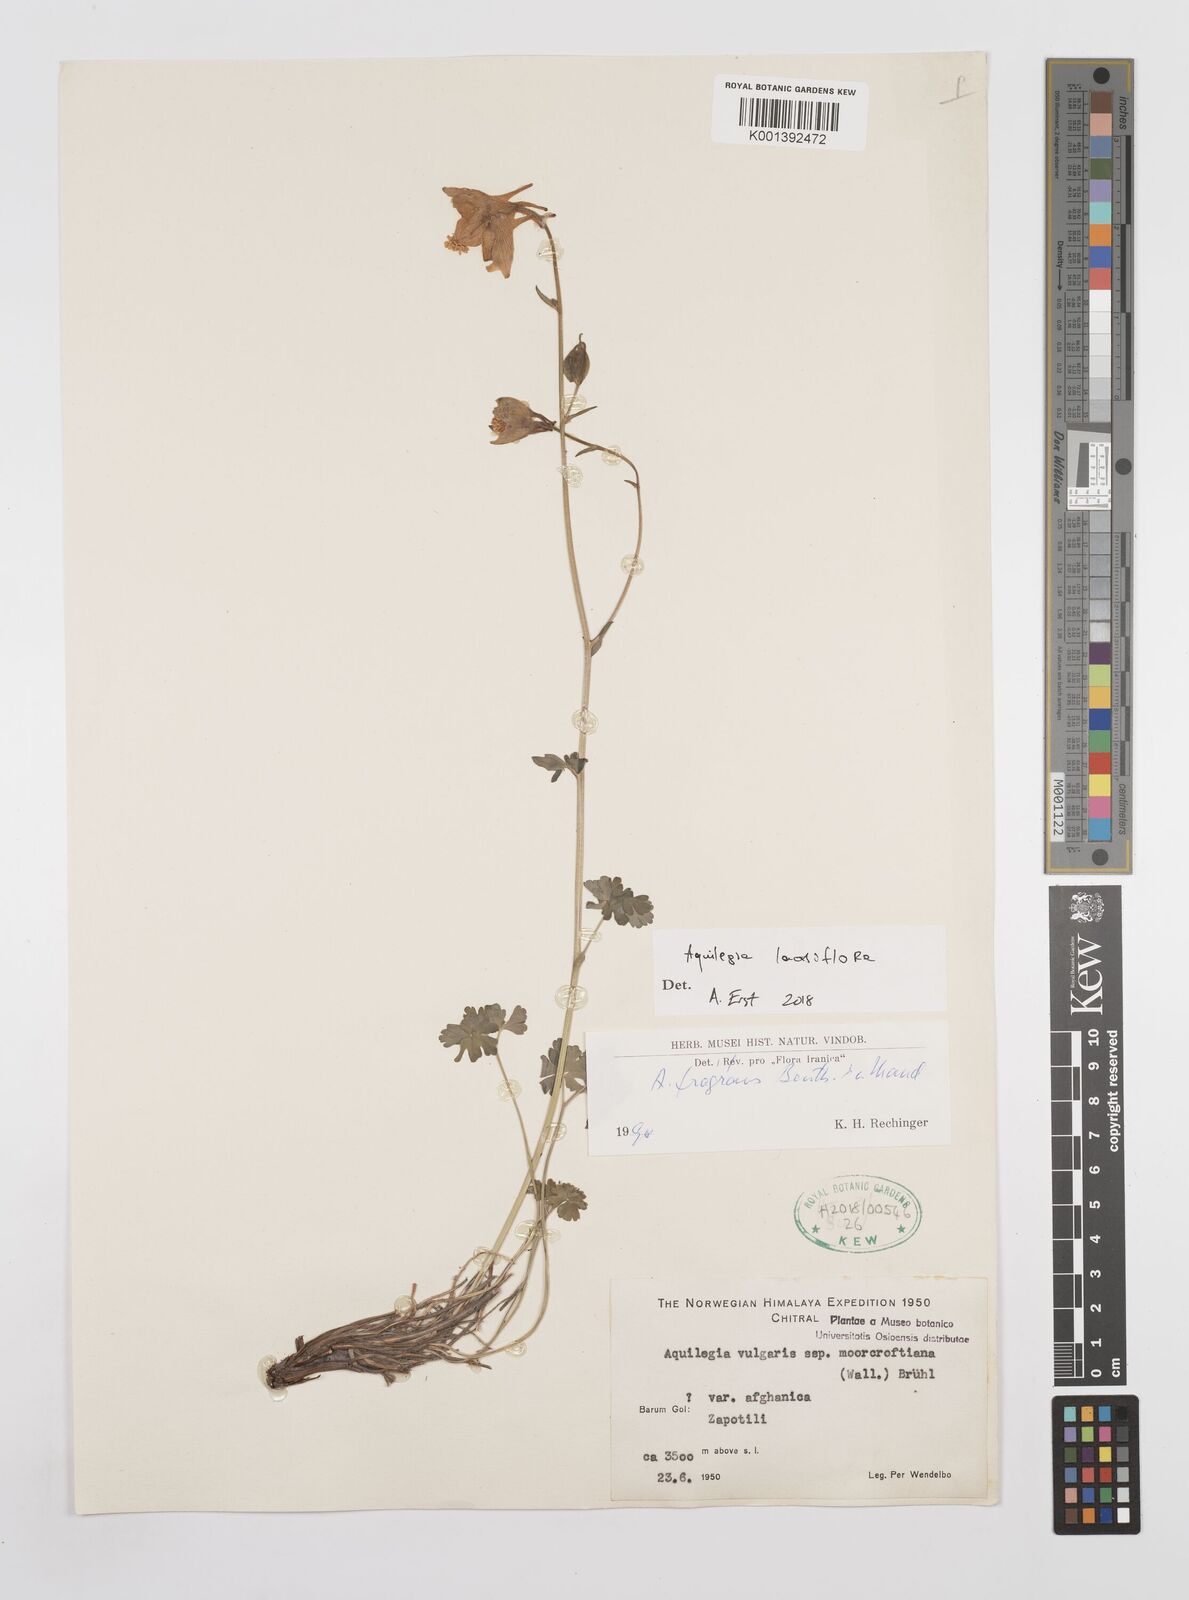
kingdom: Plantae
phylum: Tracheophyta
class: Magnoliopsida
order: Ranunculales
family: Ranunculaceae
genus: Aquilegia
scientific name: Aquilegia lactiflora
